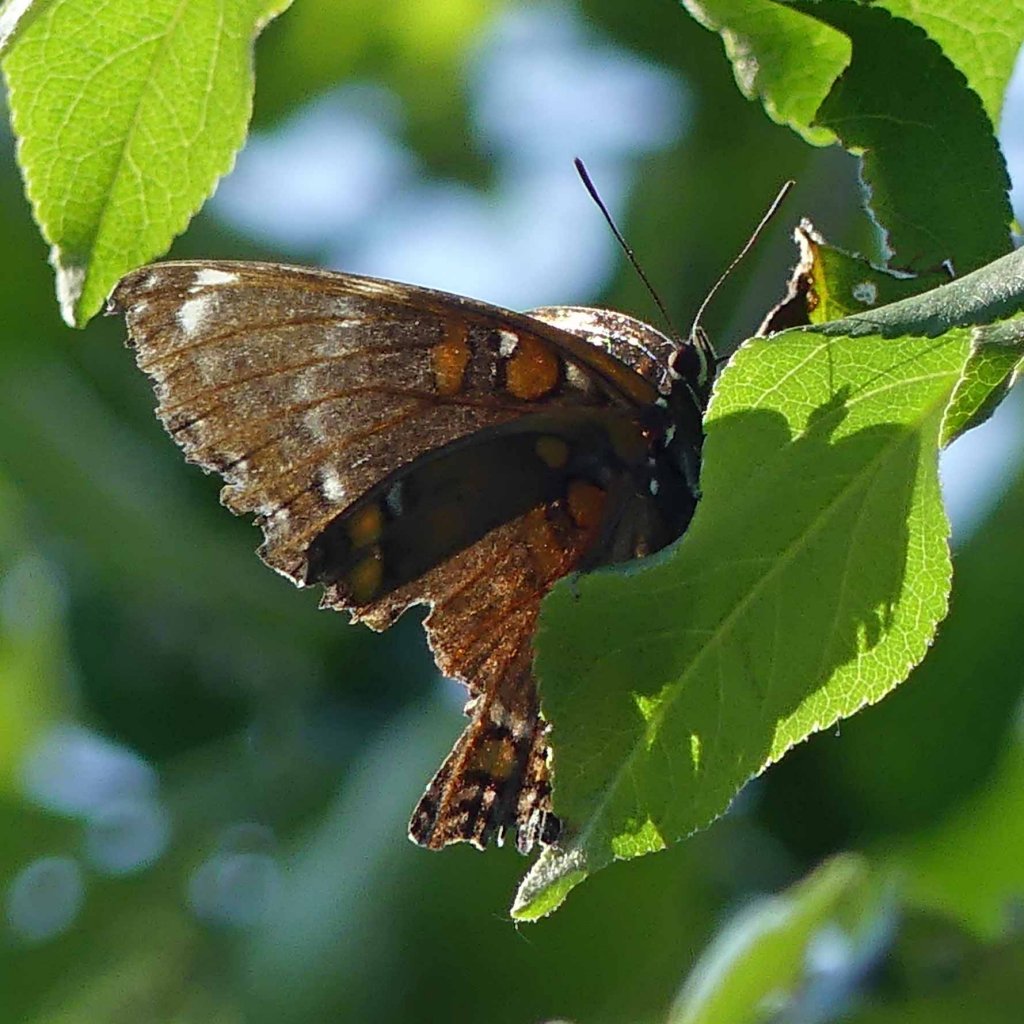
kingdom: Animalia
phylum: Arthropoda
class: Insecta
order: Lepidoptera
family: Nymphalidae
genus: Limenitis
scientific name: Limenitis astyanax
